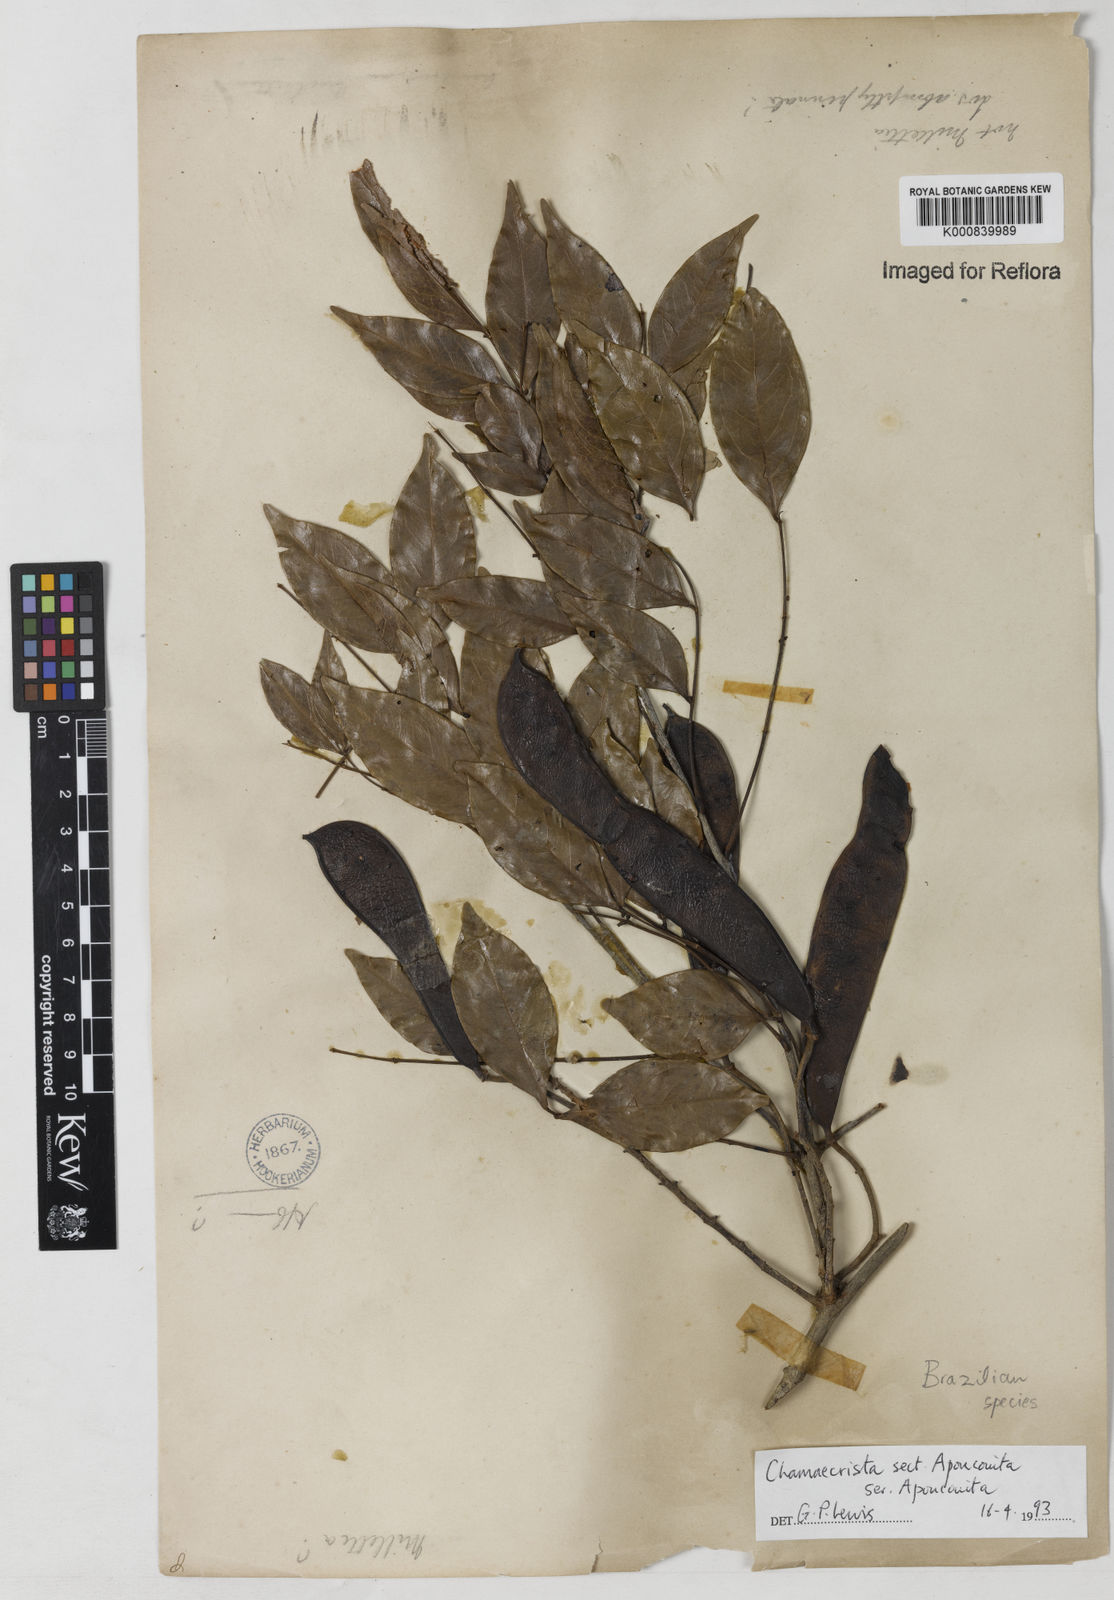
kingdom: Plantae
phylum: Tracheophyta
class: Magnoliopsida
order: Fabales
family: Fabaceae
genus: Chamaecrista
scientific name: Chamaecrista
